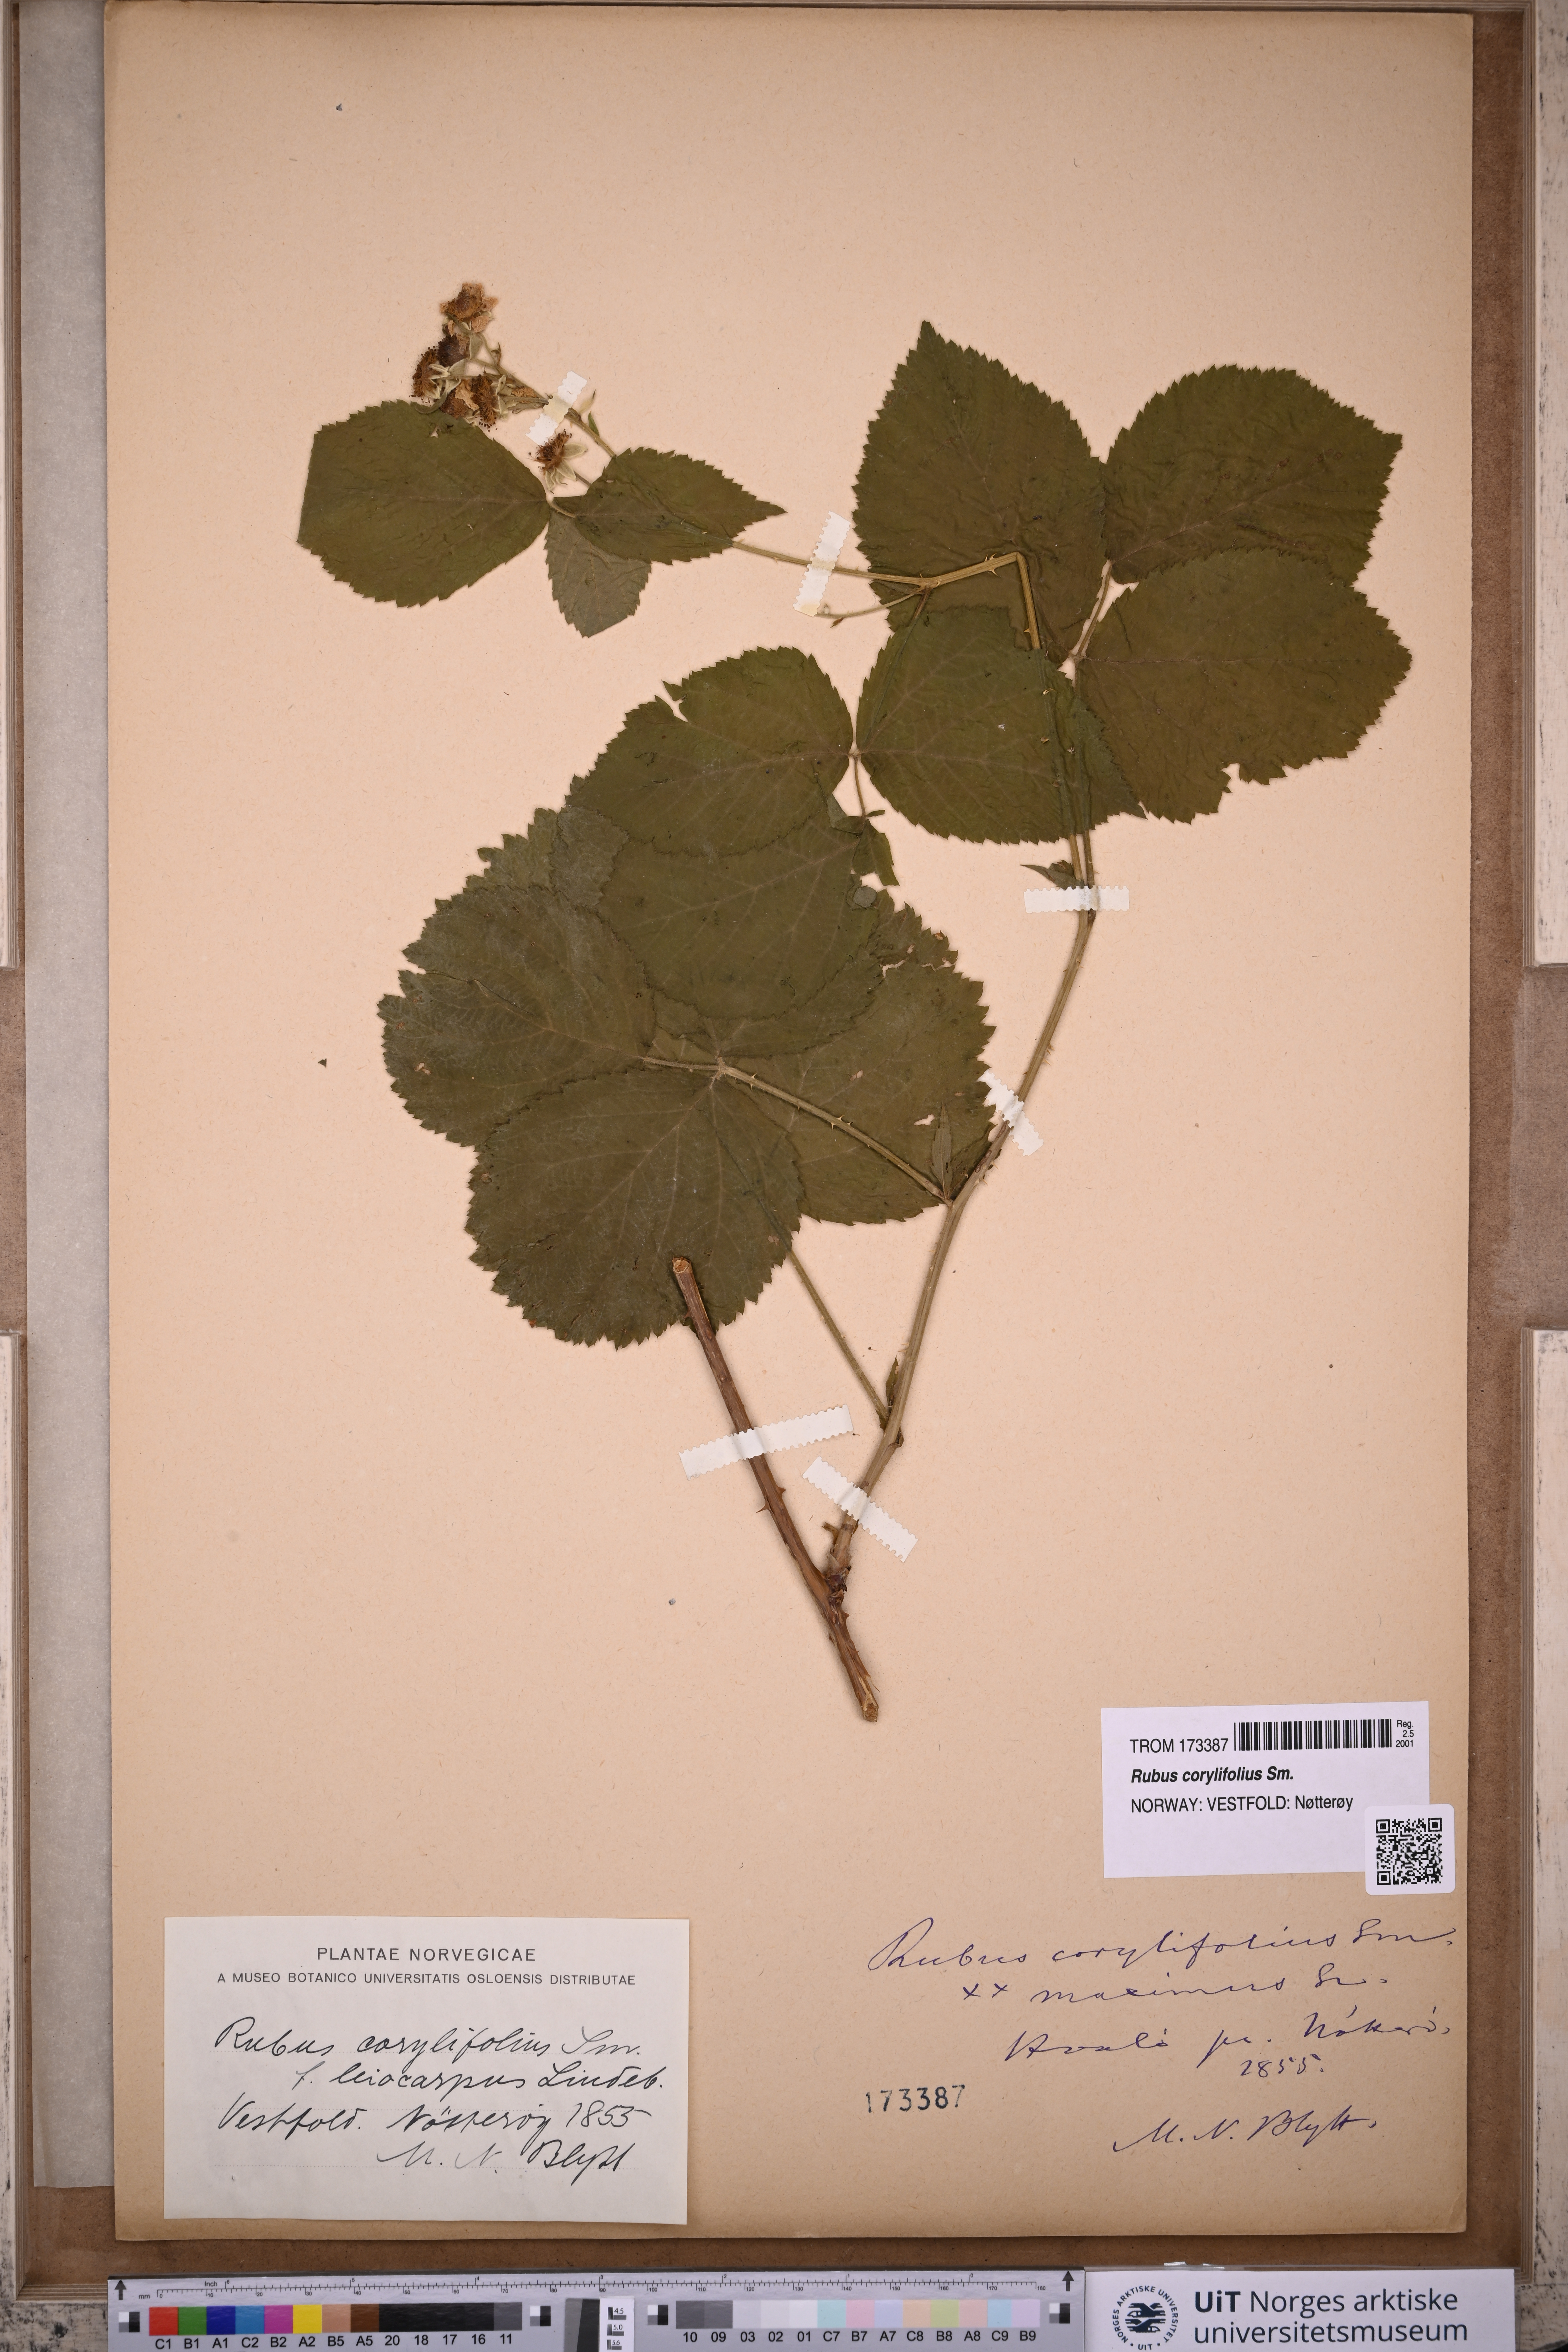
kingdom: Plantae
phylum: Tracheophyta
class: Magnoliopsida
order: Rosales
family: Rosaceae
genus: Rubus
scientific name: Rubus
